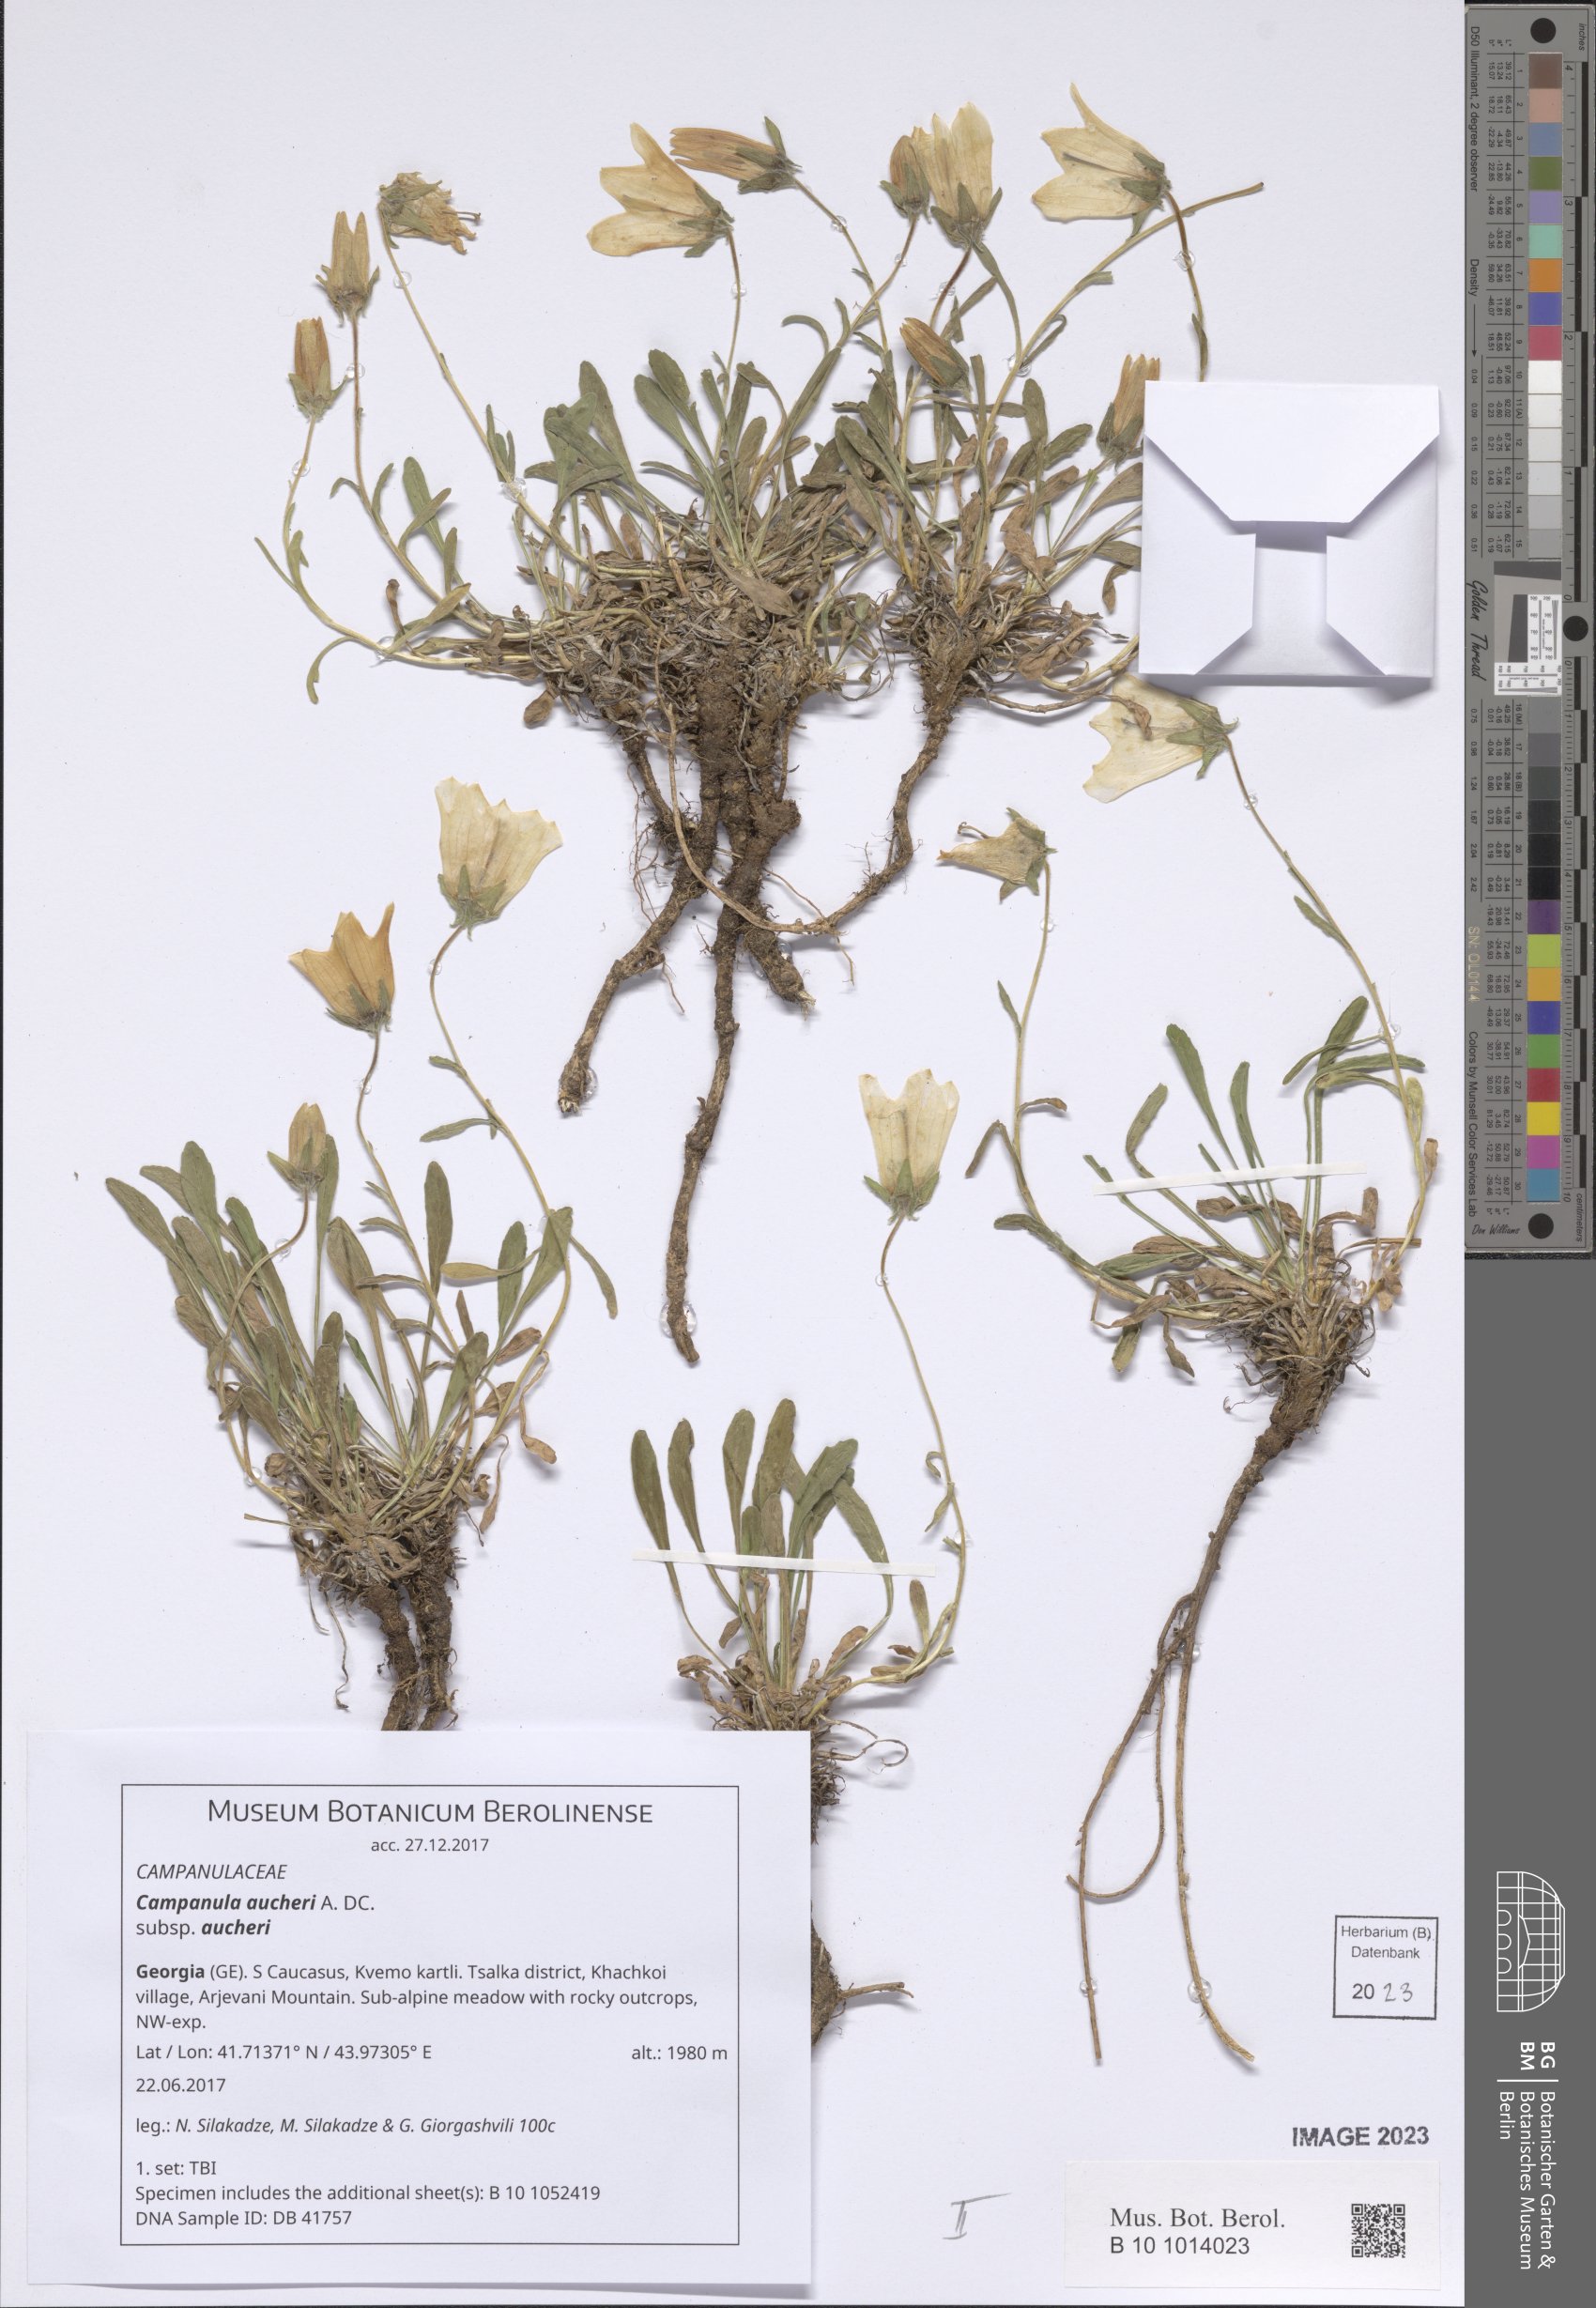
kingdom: Plantae
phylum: Tracheophyta
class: Magnoliopsida
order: Asterales
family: Campanulaceae
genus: Campanula
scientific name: Campanula saxifraga
